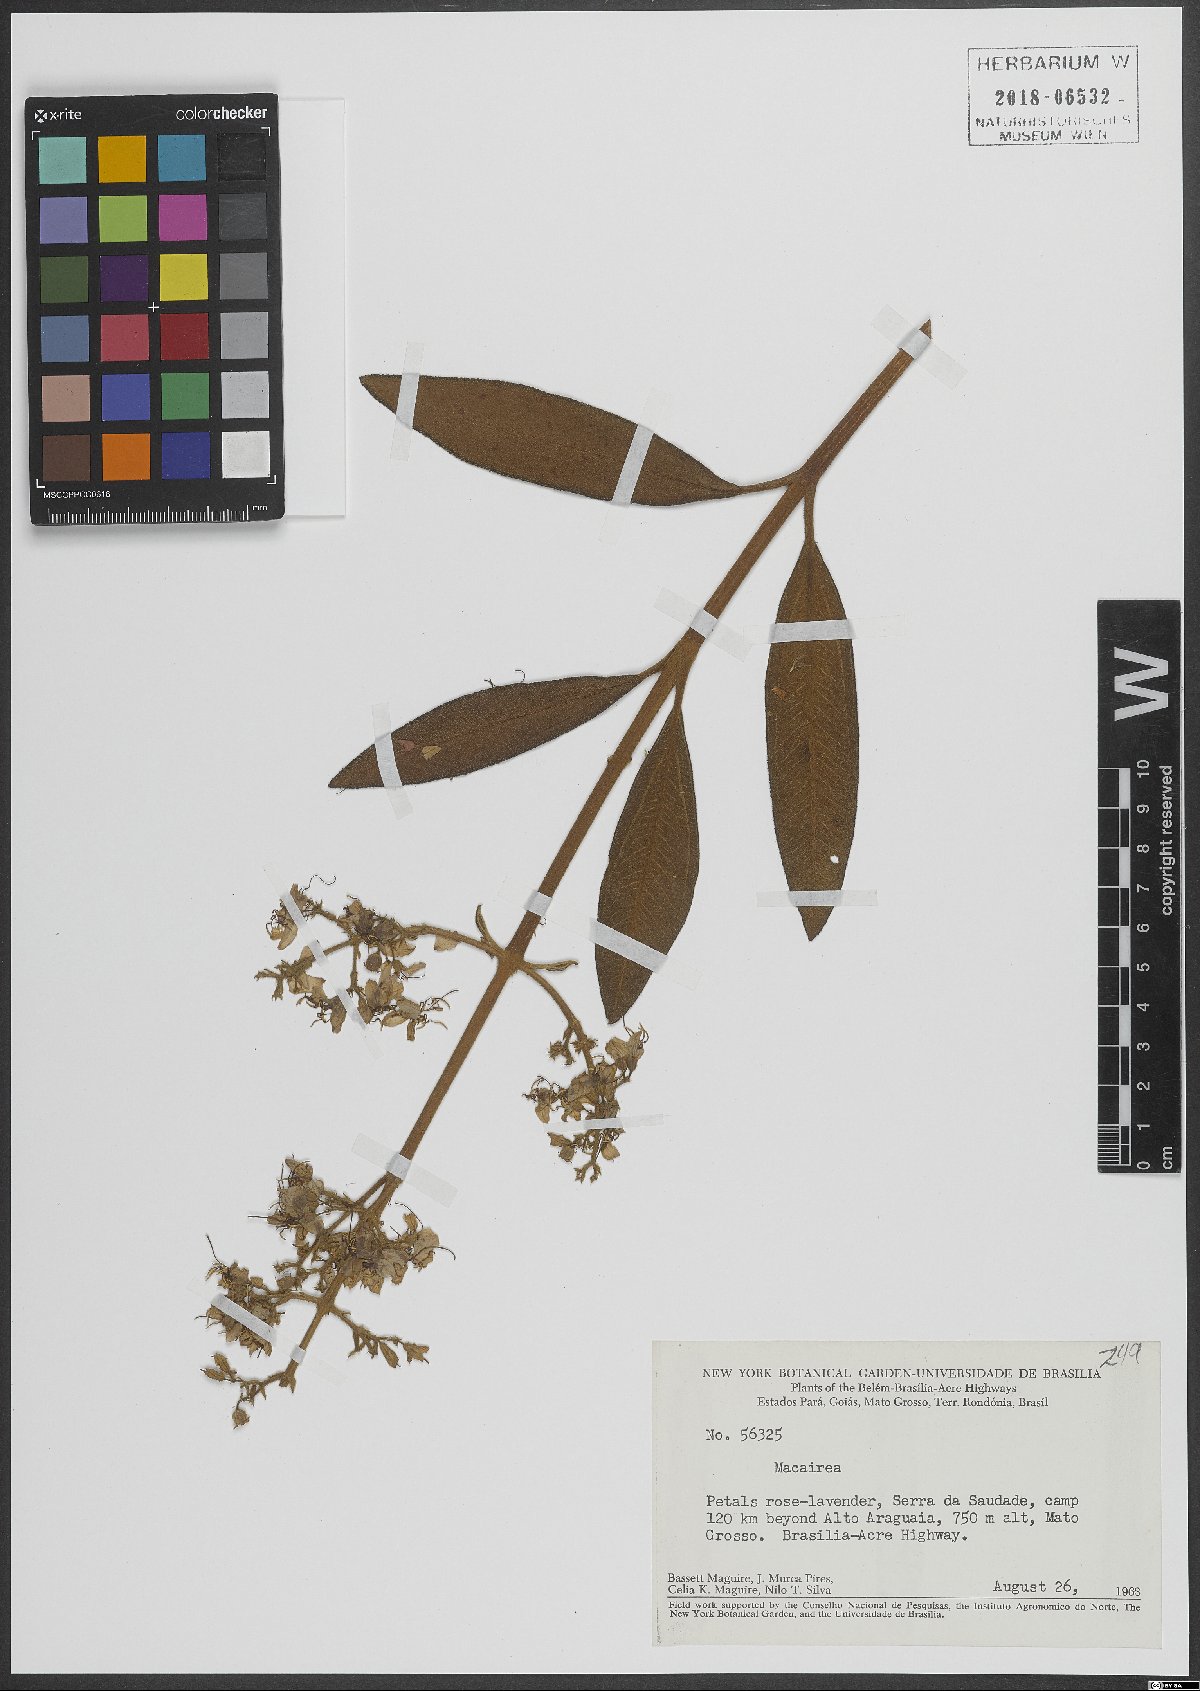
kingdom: Plantae
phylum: Tracheophyta
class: Magnoliopsida
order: Myrtales
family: Melastomataceae
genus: Macairea
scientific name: Macairea
